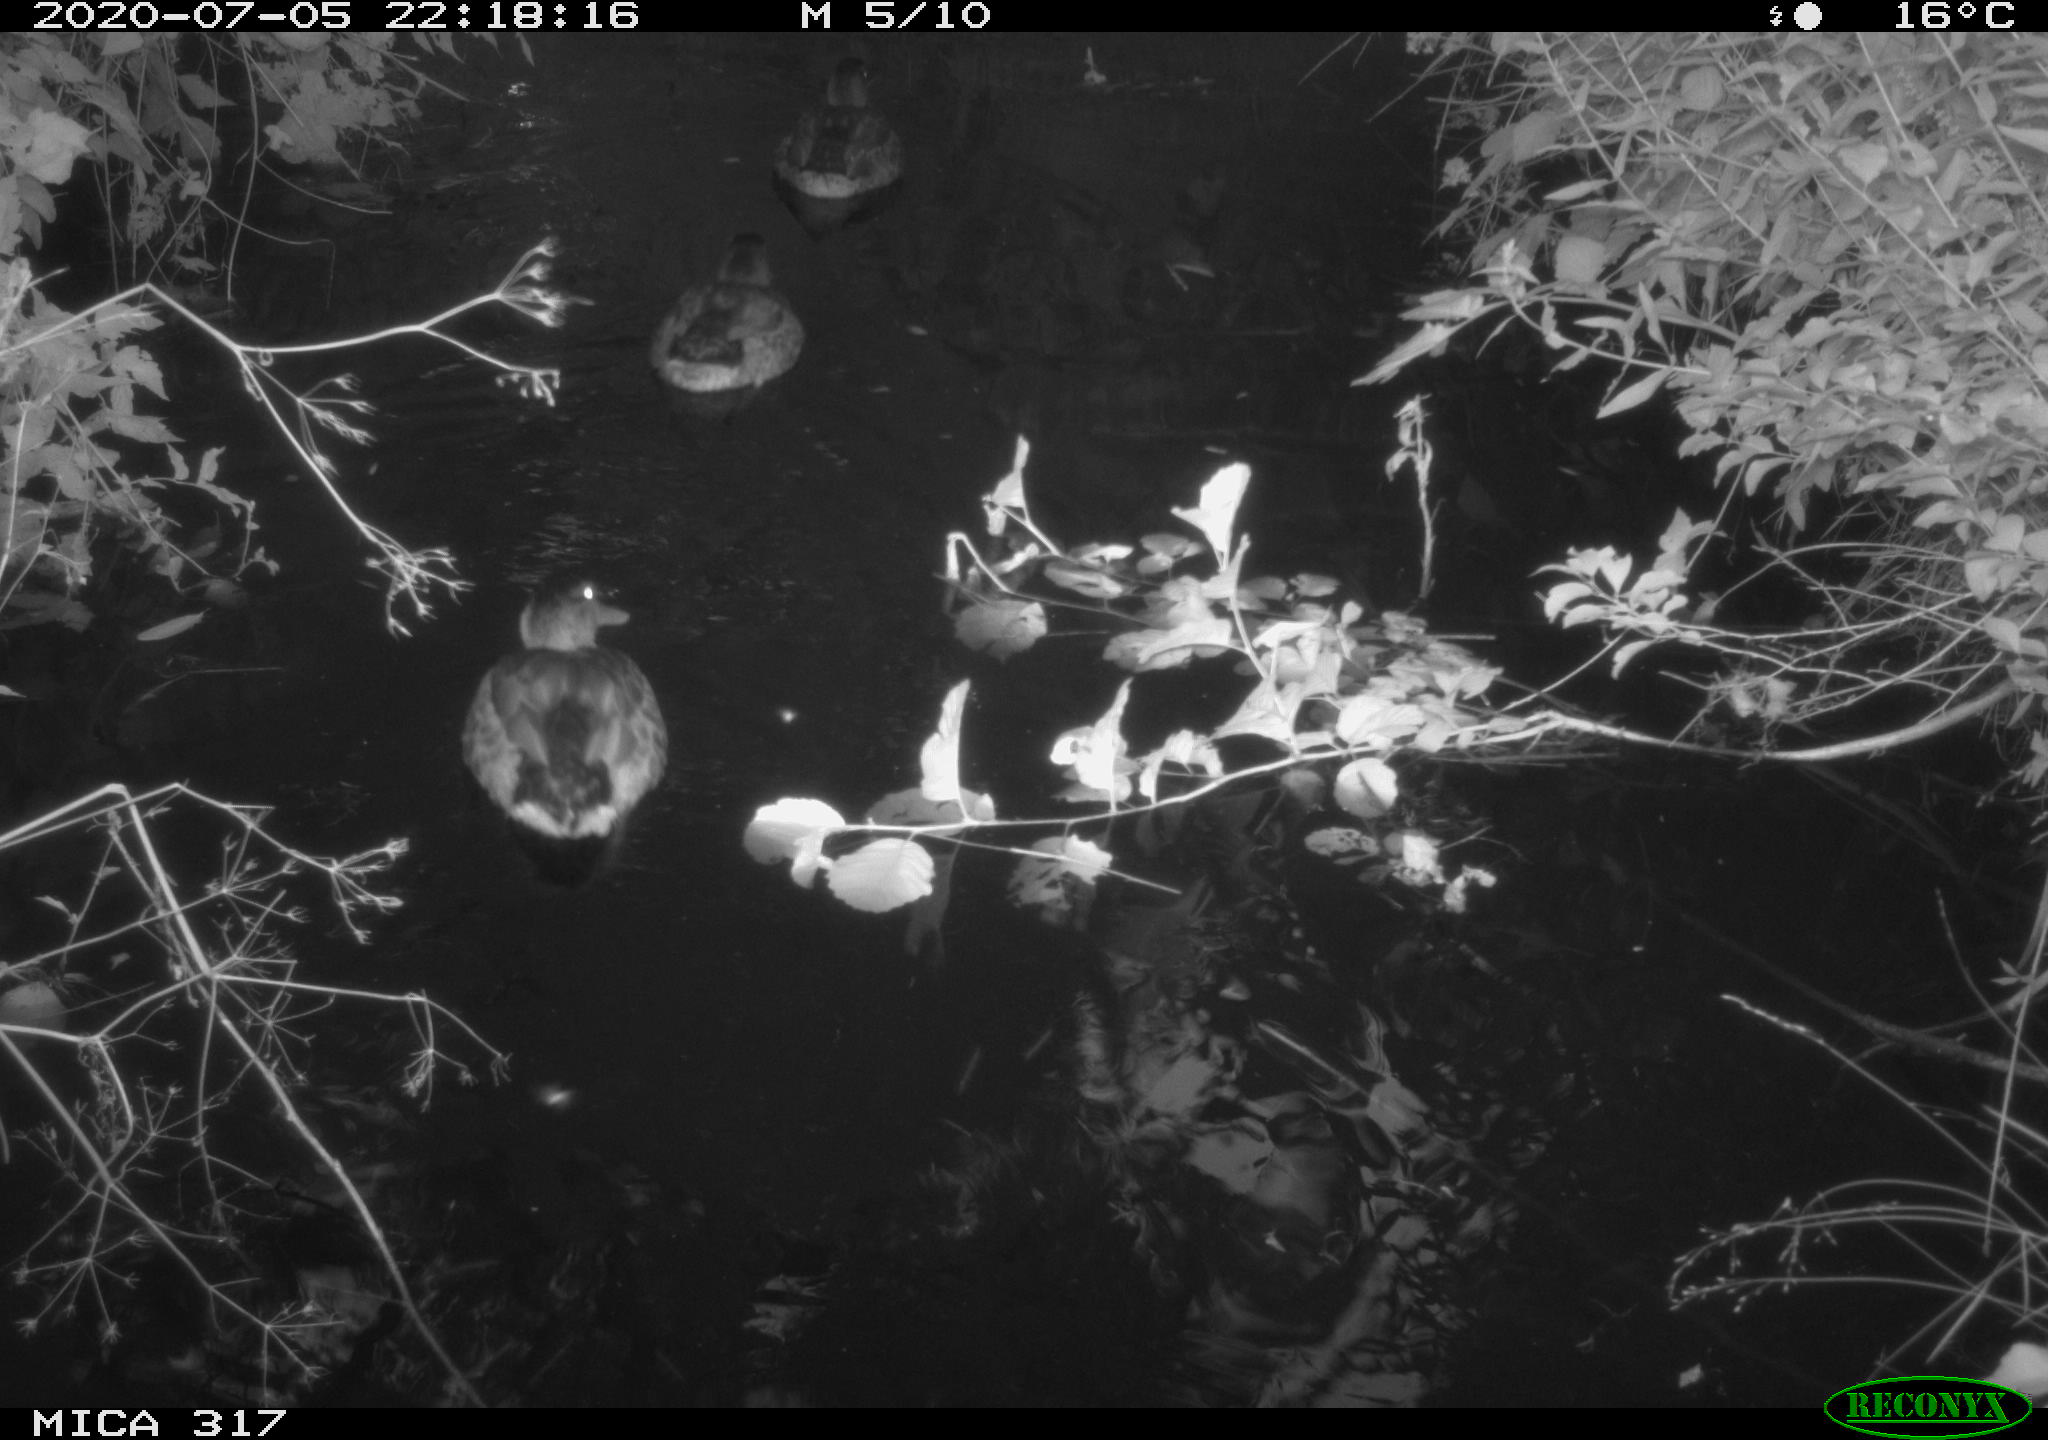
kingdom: Animalia
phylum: Chordata
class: Aves
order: Anseriformes
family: Anatidae
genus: Anas
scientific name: Anas platyrhynchos
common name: Mallard
